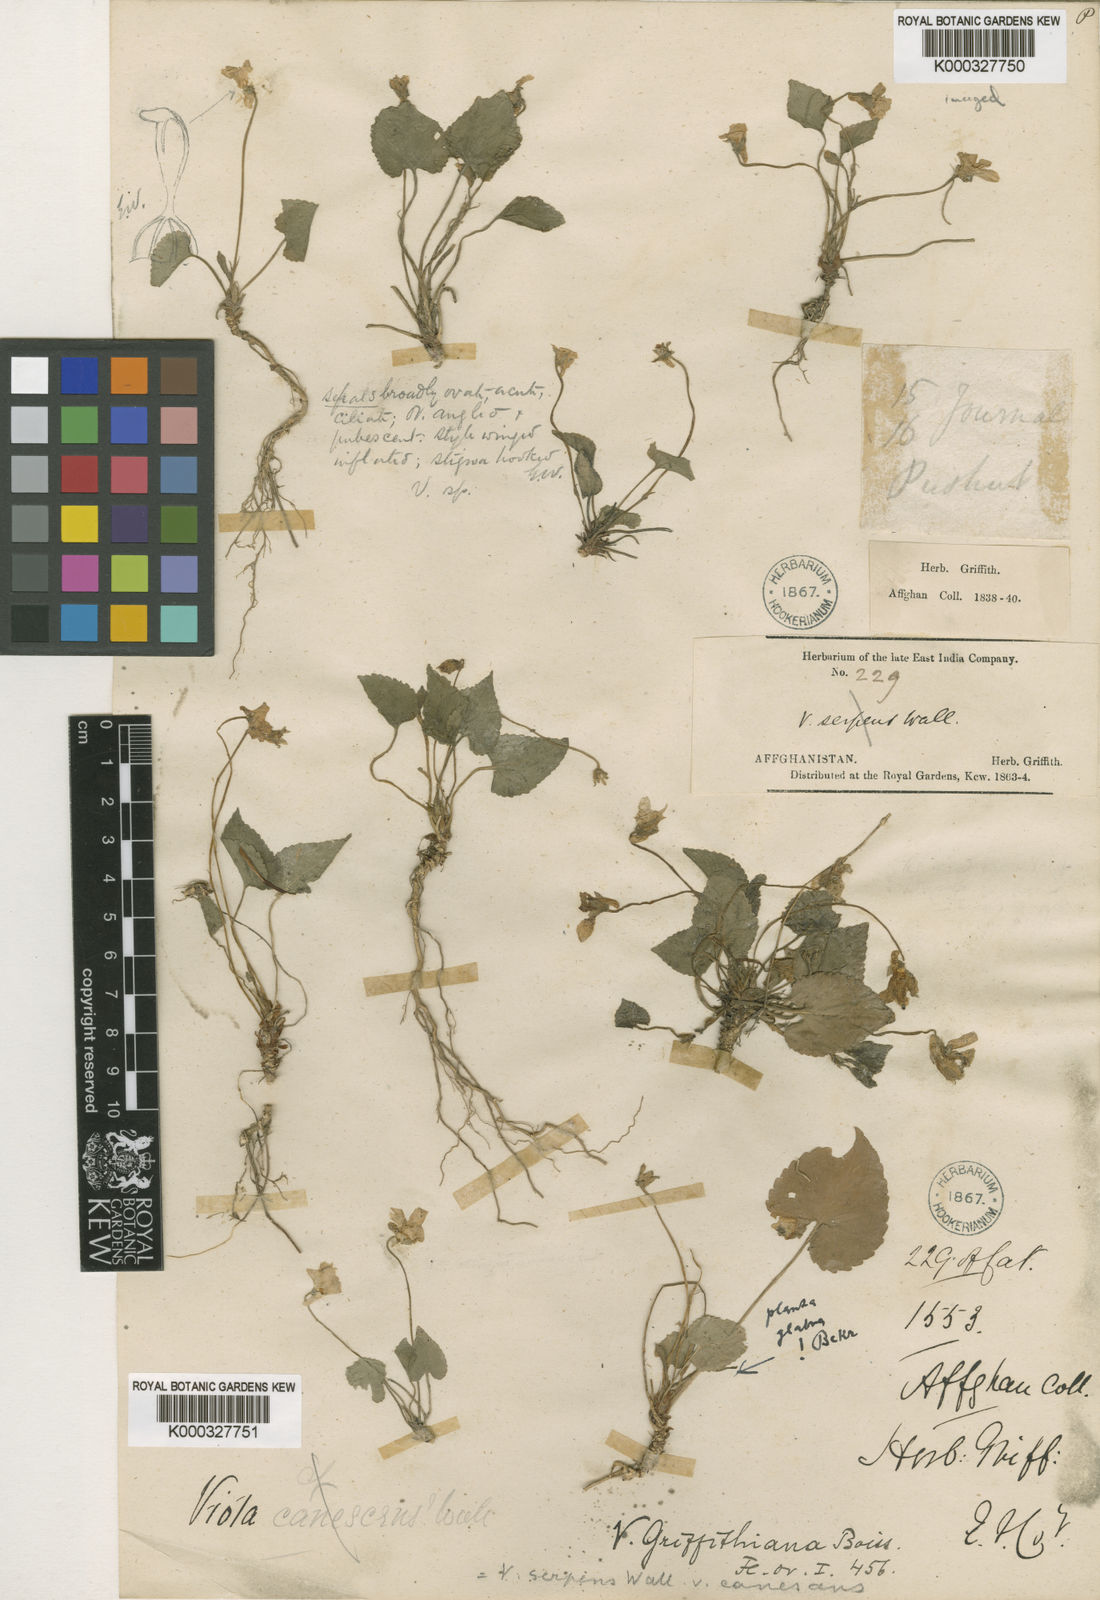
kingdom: Plantae
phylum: Tracheophyta
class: Magnoliopsida
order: Malpighiales
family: Violaceae
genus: Viola
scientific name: Viola pilosa
